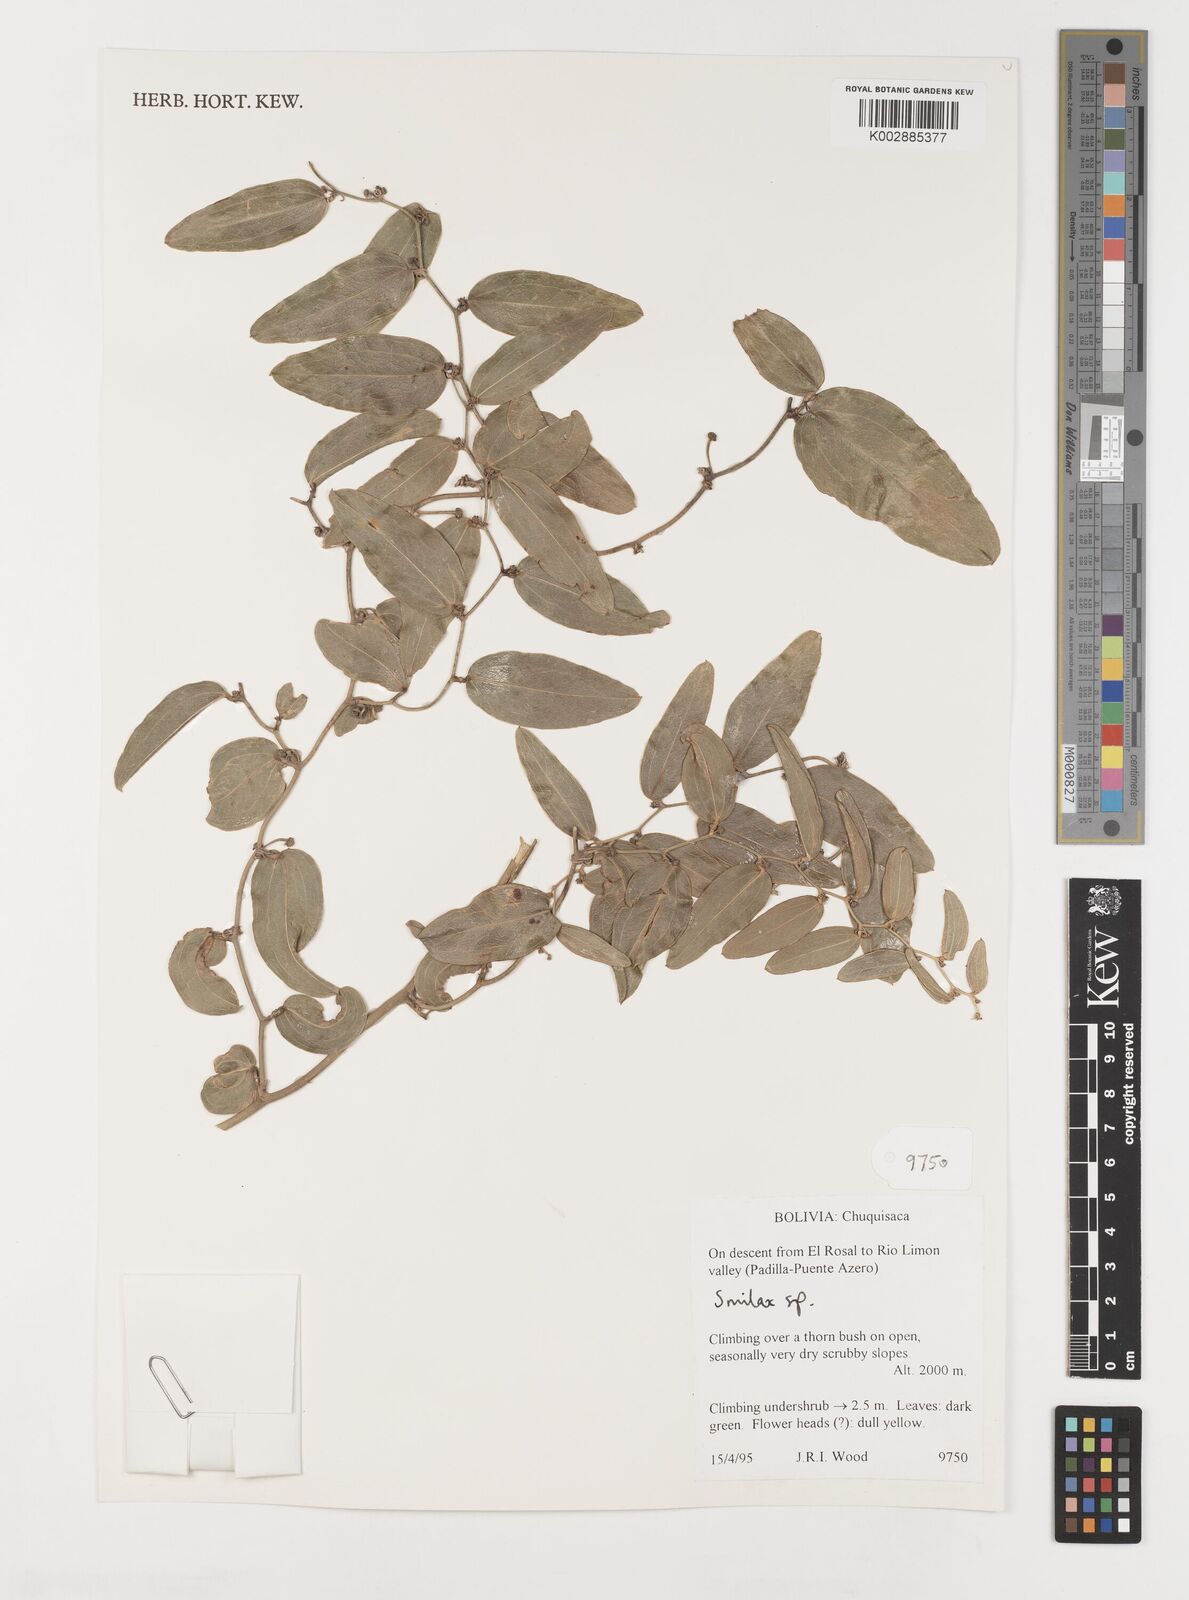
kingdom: Plantae
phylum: Tracheophyta
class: Liliopsida
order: Liliales
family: Smilacaceae
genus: Smilax
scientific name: Smilax
